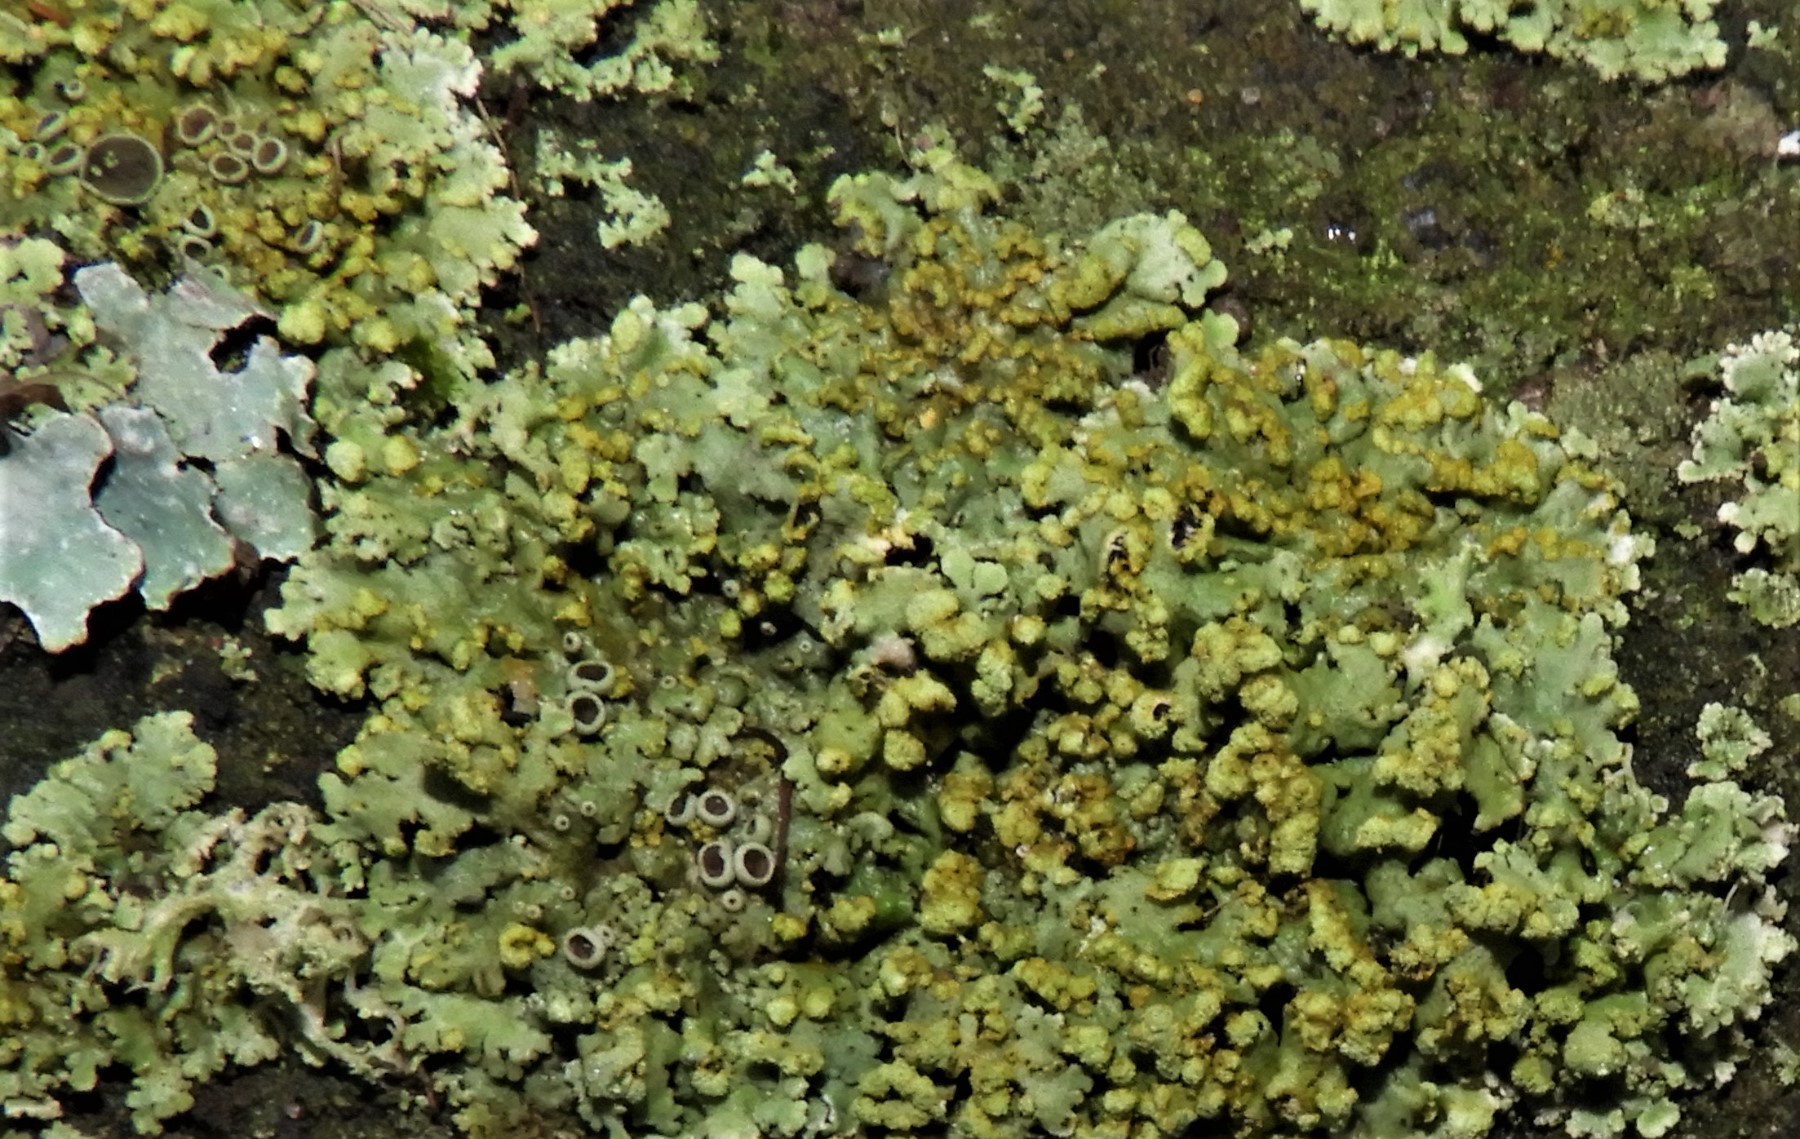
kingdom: Fungi
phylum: Ascomycota
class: Lecanoromycetes
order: Caliciales
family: Physciaceae
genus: Phaeophyscia
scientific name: Phaeophyscia orbicularis
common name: grågrøn rosetlav
